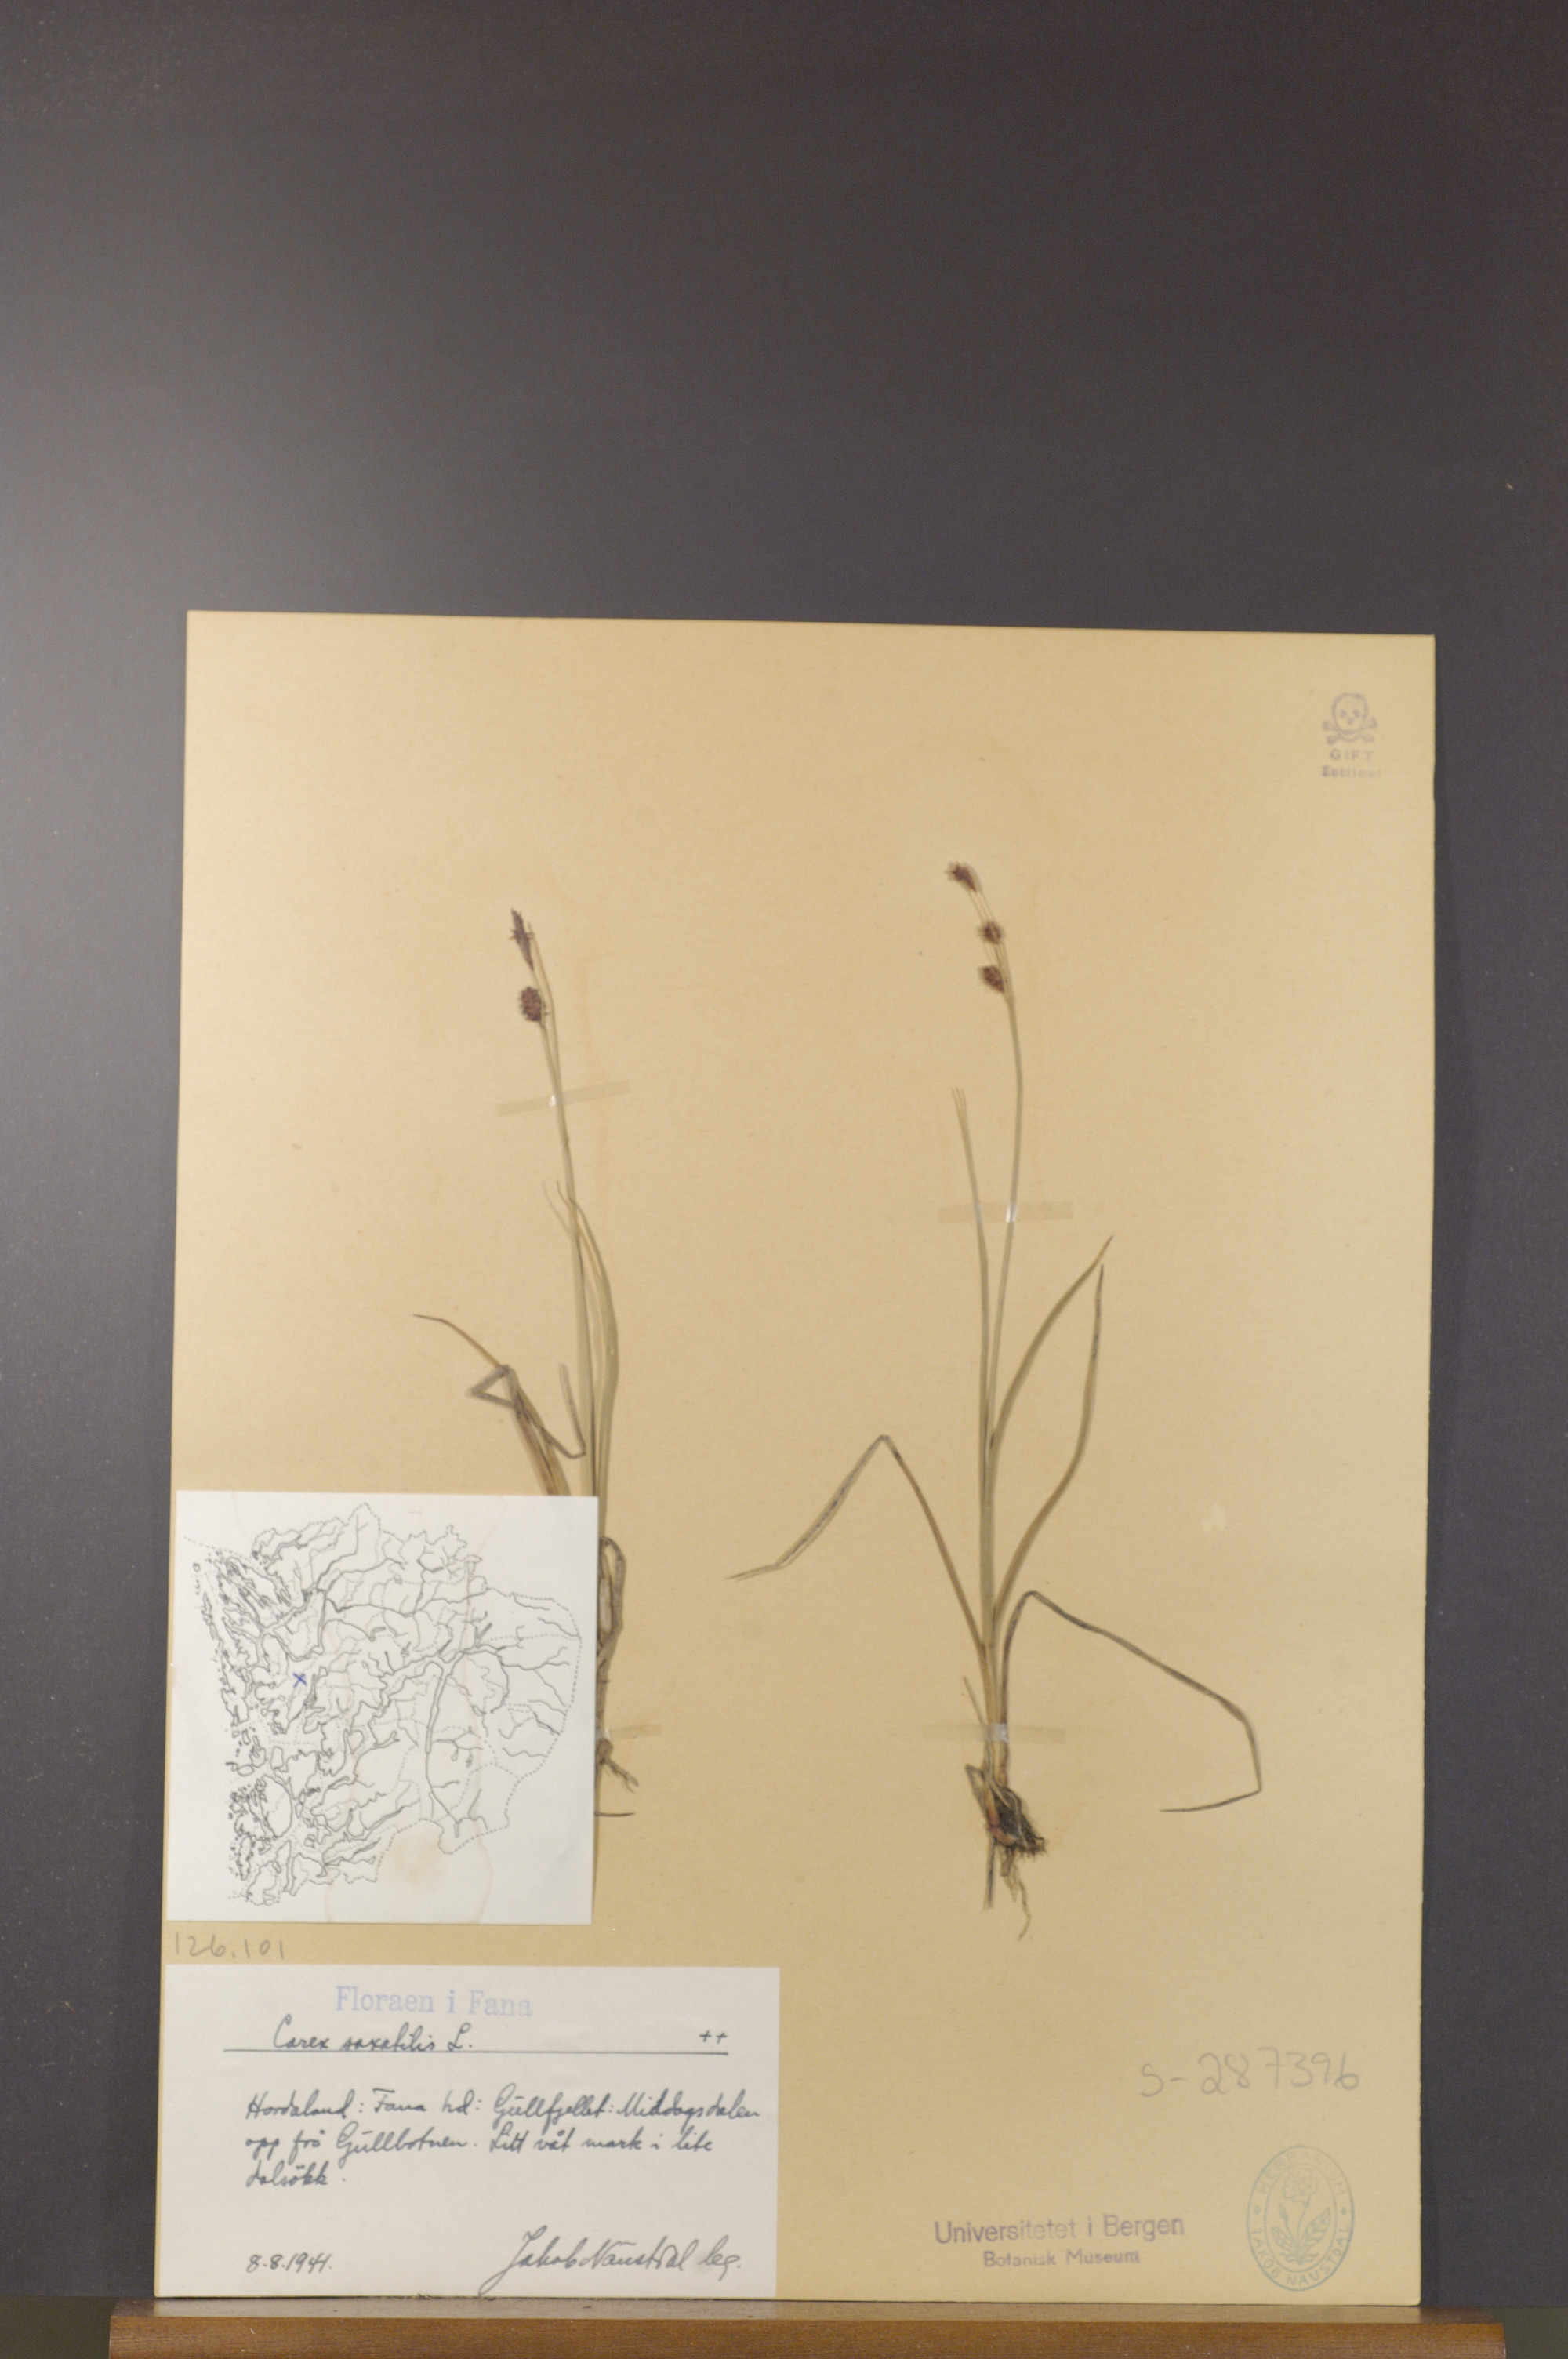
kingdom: Plantae
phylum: Tracheophyta
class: Liliopsida
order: Poales
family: Cyperaceae
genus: Carex
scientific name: Carex saxatilis
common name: Russet sedge
